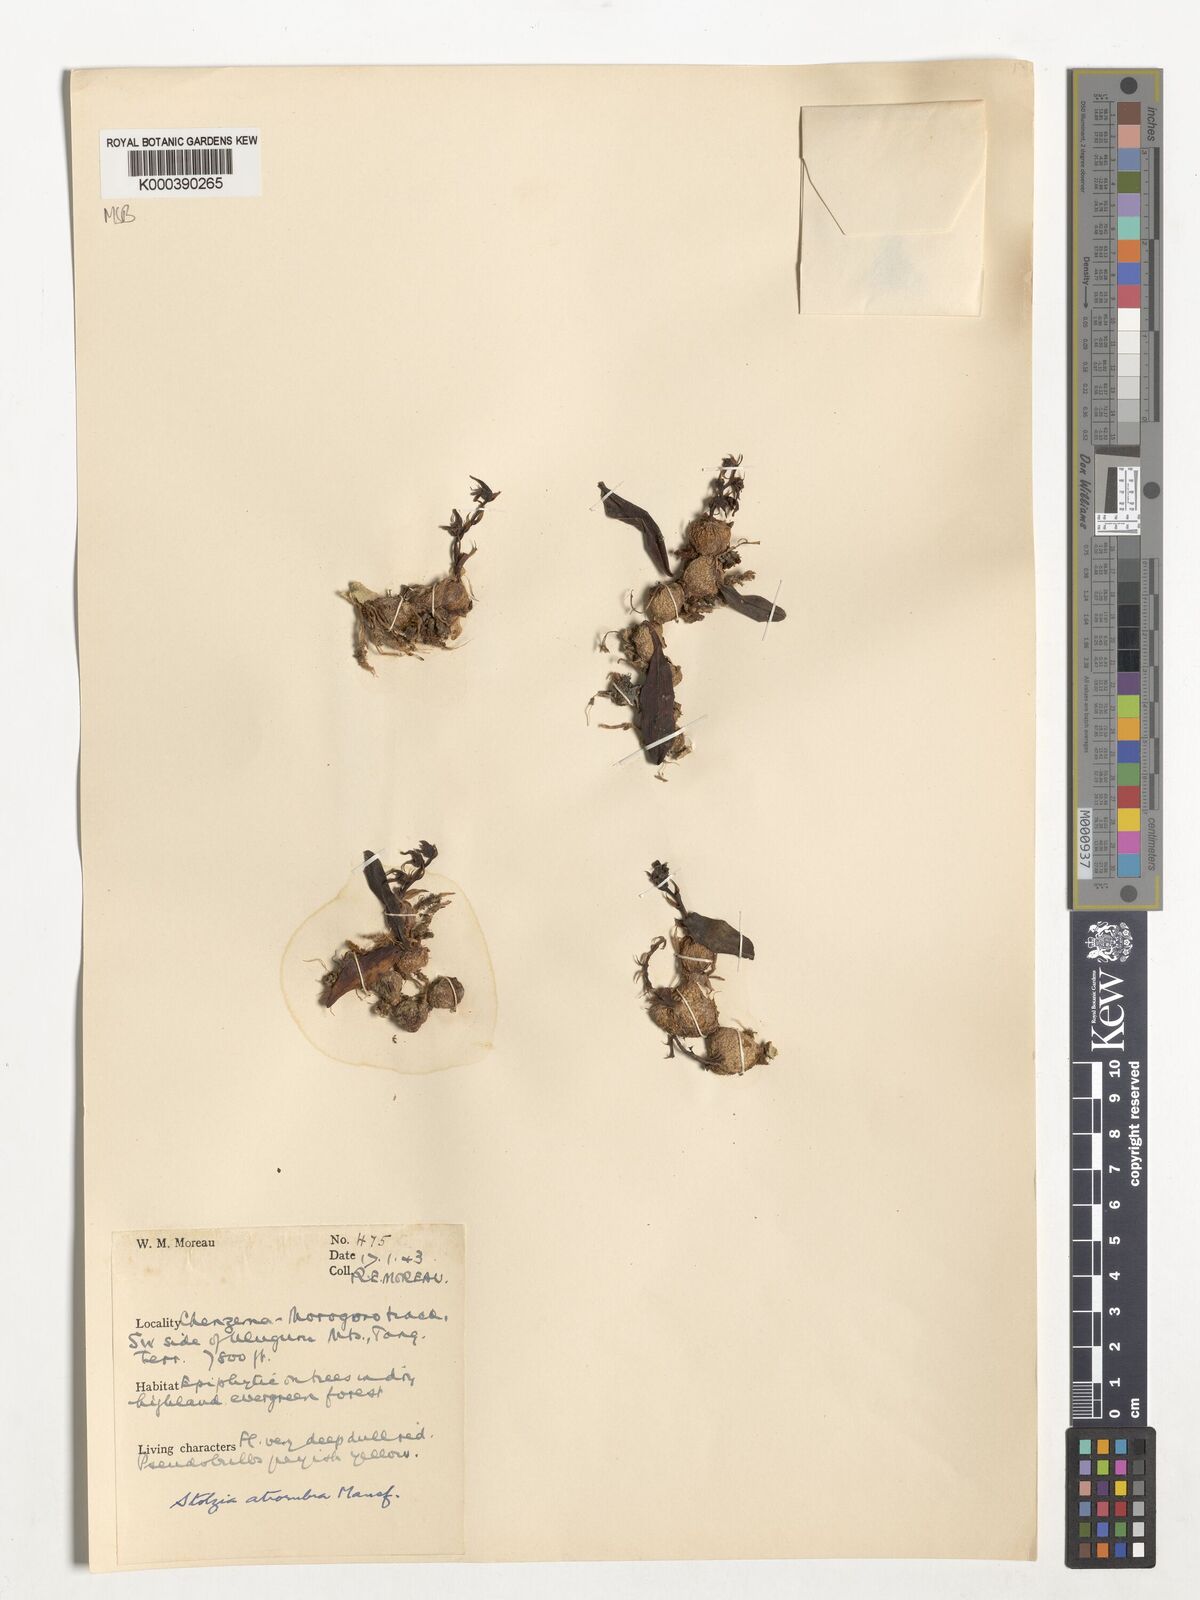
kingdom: Plantae
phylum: Tracheophyta
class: Liliopsida
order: Asparagales
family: Orchidaceae
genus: Porpax
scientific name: Porpax atrorubra
